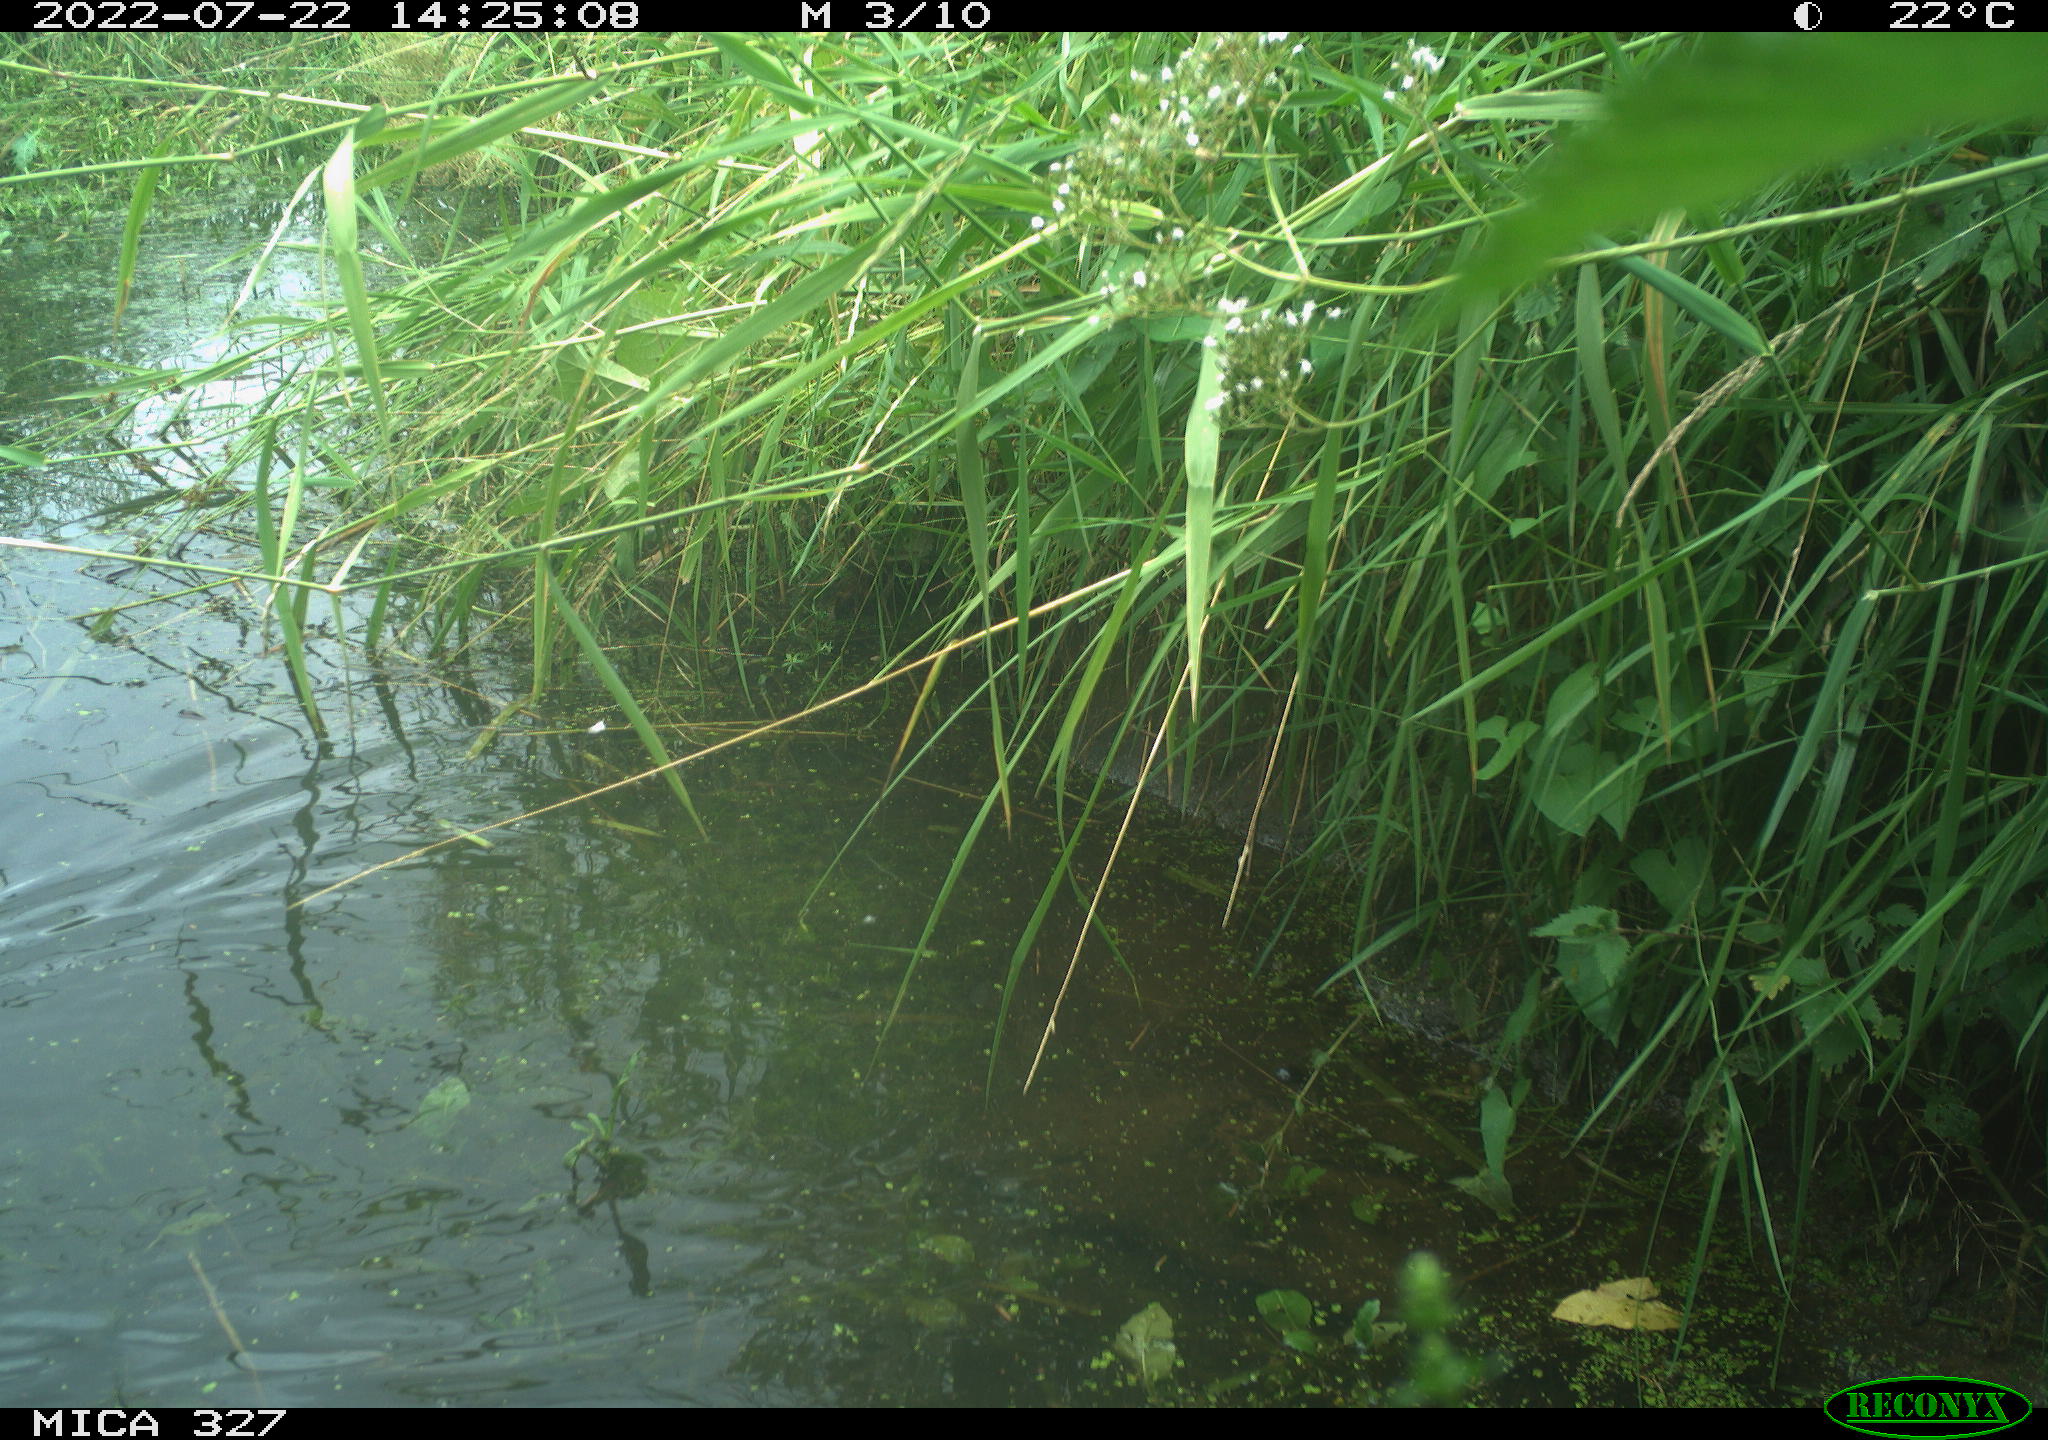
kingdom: Animalia
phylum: Chordata
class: Aves
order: Gruiformes
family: Rallidae
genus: Gallinula
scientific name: Gallinula chloropus
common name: Common moorhen
